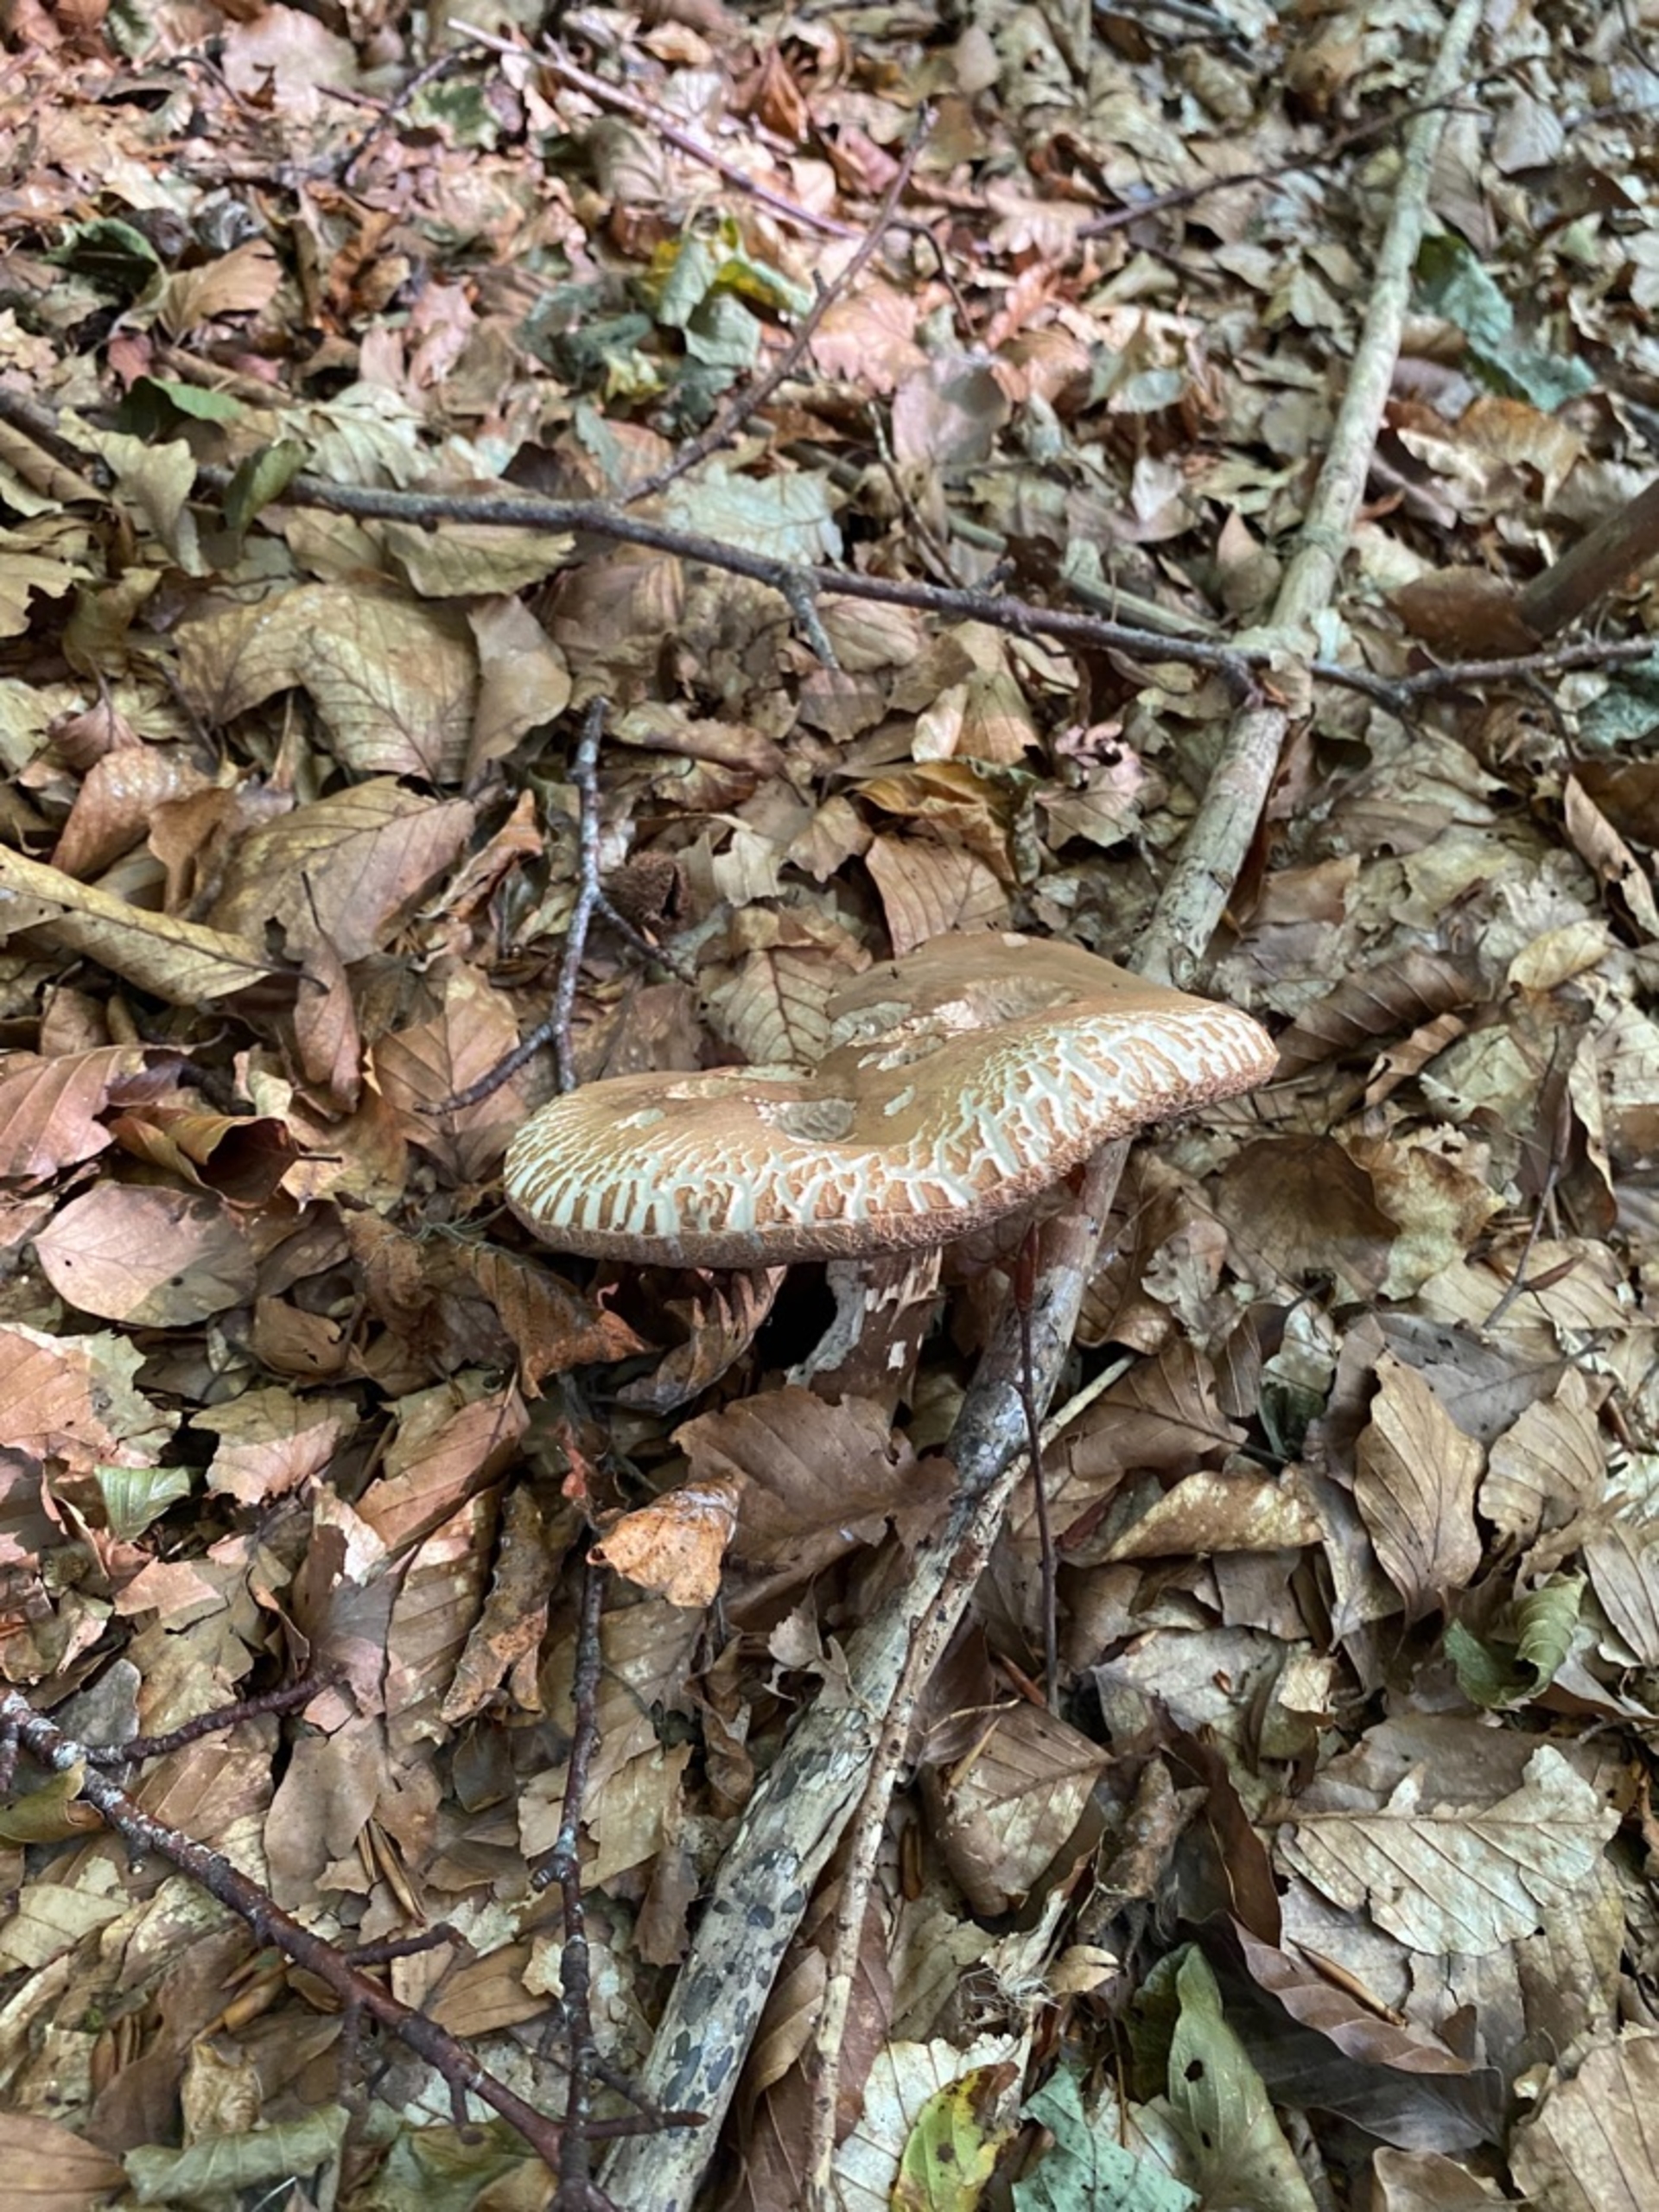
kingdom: Fungi
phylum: Basidiomycota
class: Agaricomycetes
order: Boletales
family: Boletaceae
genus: Porphyrellus
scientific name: Porphyrellus
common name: Sodrørhat
